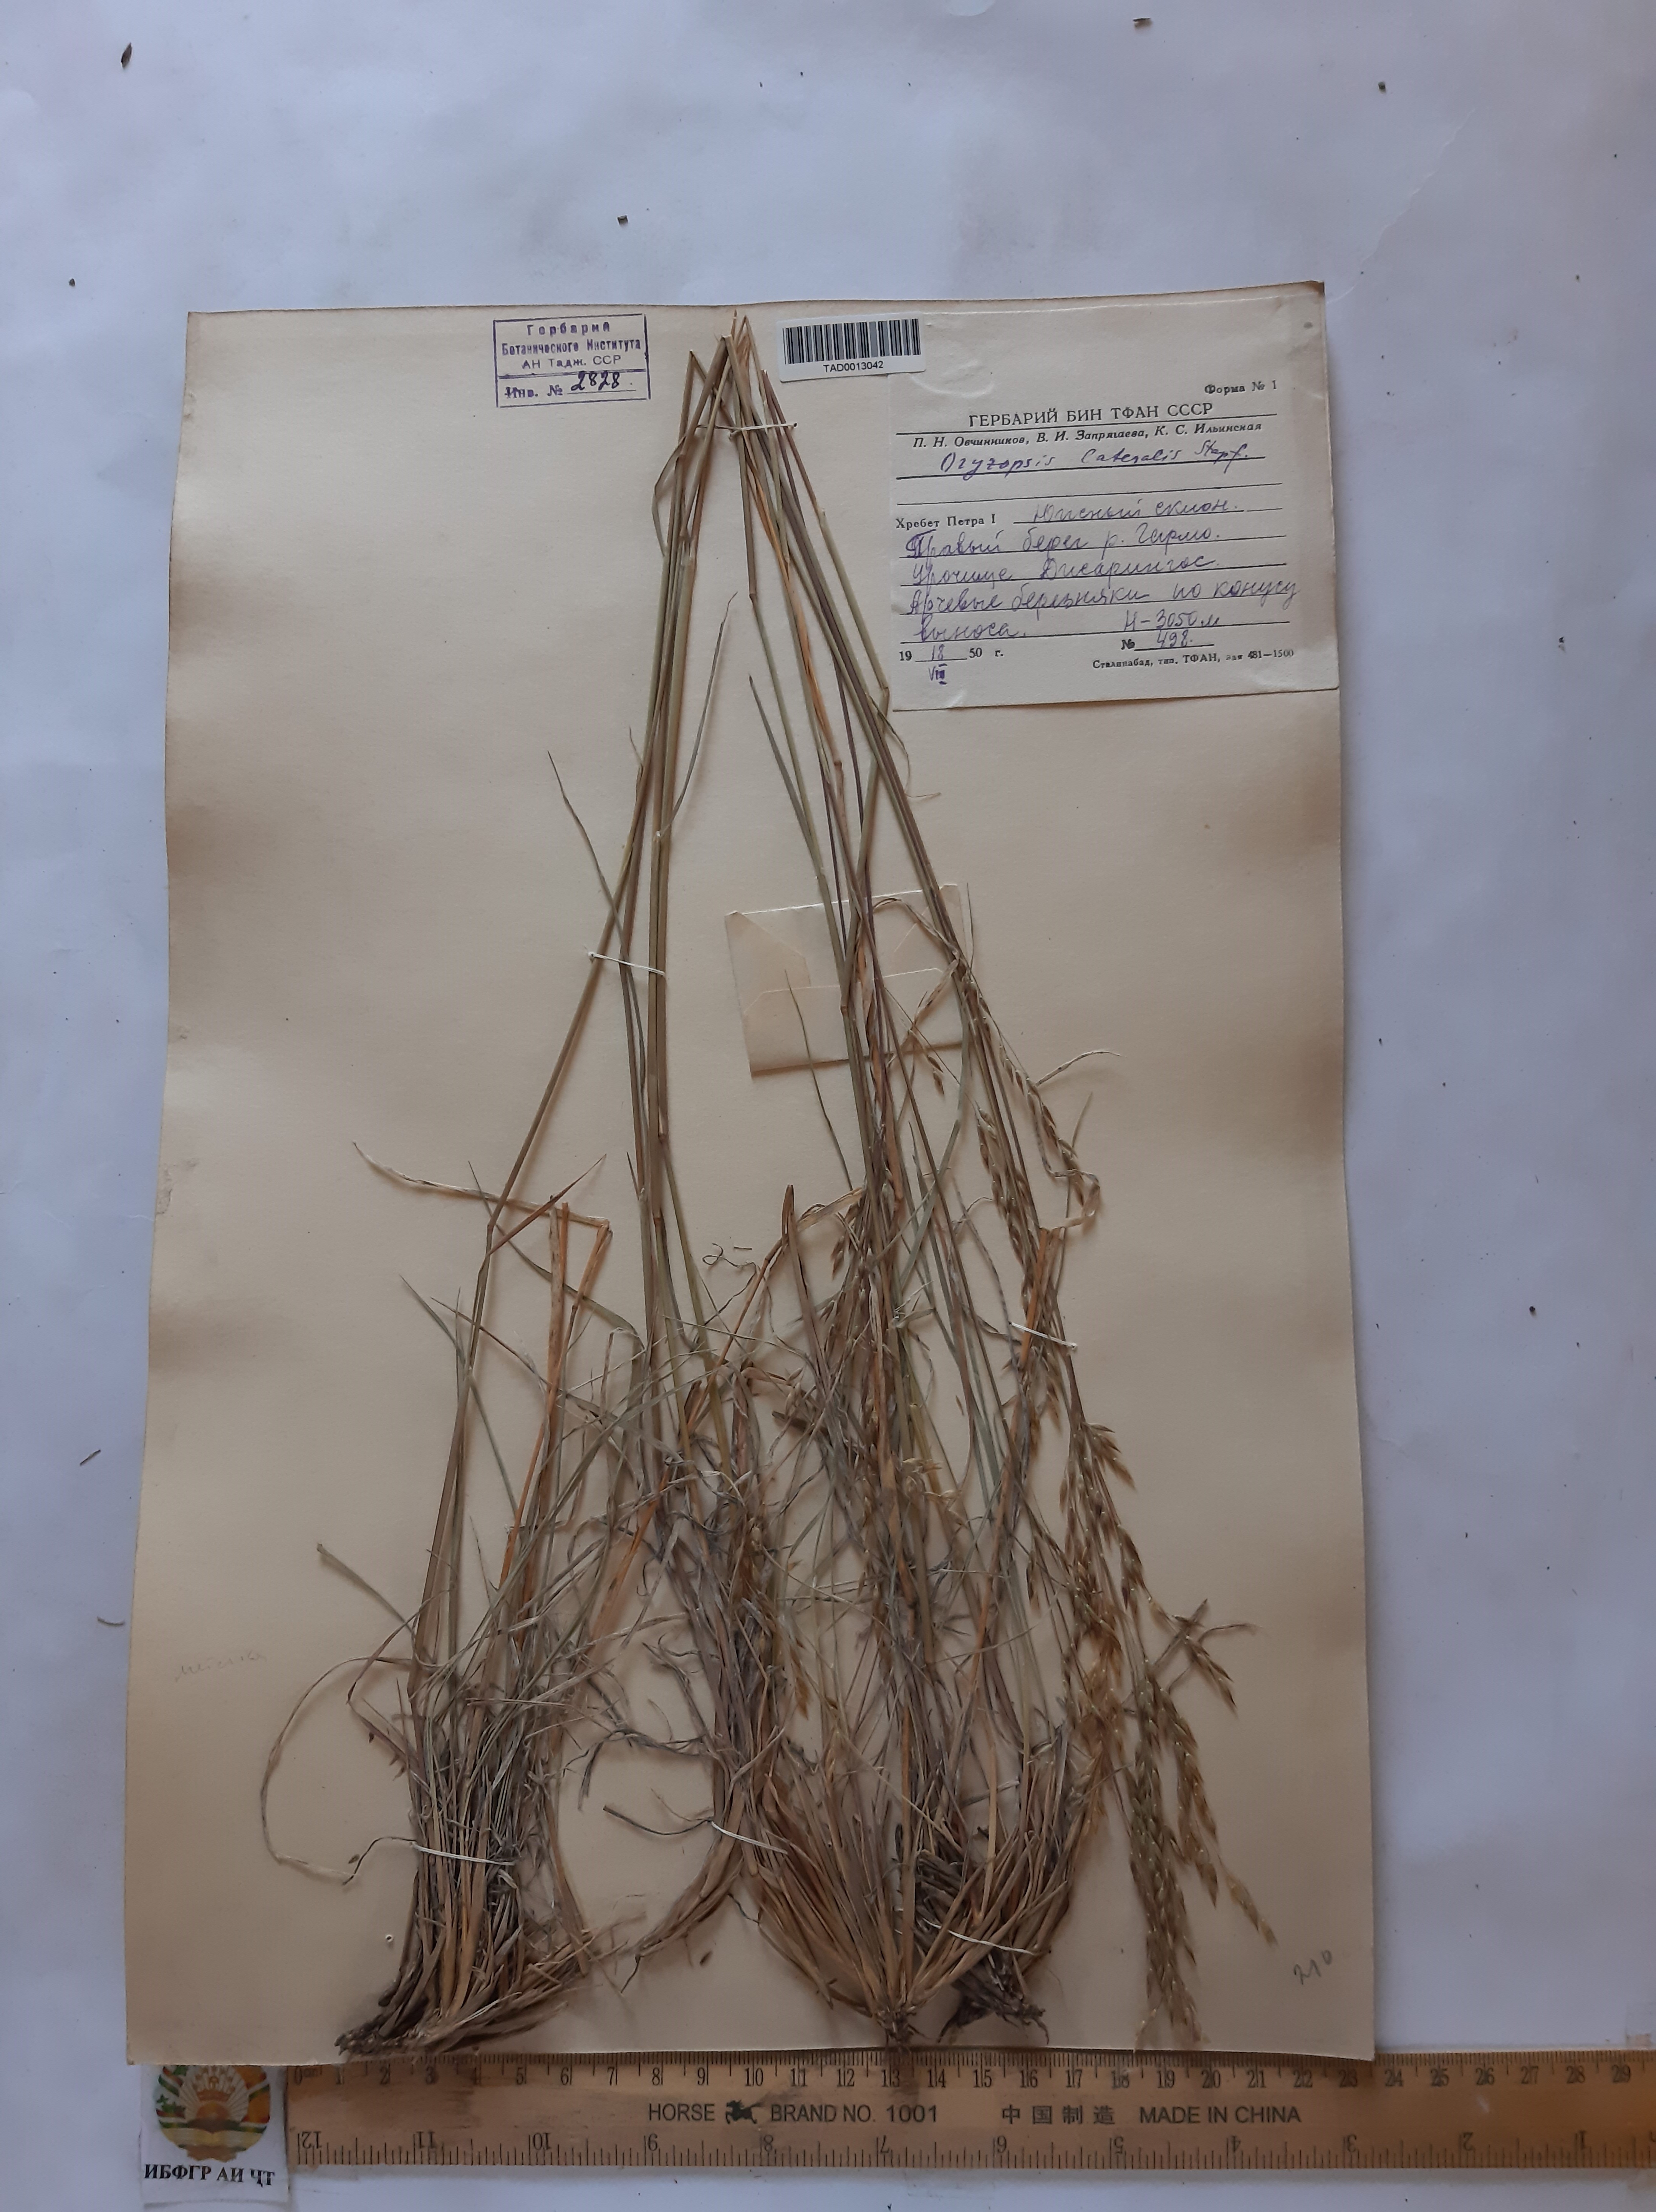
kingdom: Plantae
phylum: Tracheophyta
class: Liliopsida
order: Poales
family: Poaceae
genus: Piptatherum
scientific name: Piptatherum laterale
